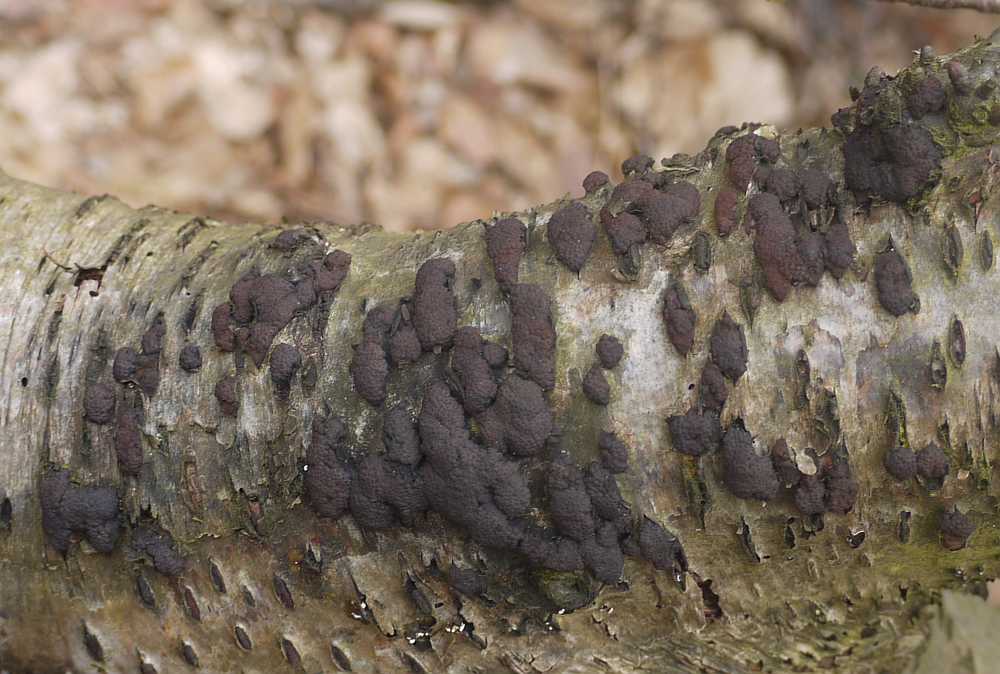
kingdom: Fungi
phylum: Ascomycota
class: Sordariomycetes
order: Xylariales
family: Hypoxylaceae
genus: Jackrogersella
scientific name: Jackrogersella multiformis
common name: foranderlig kulbær
